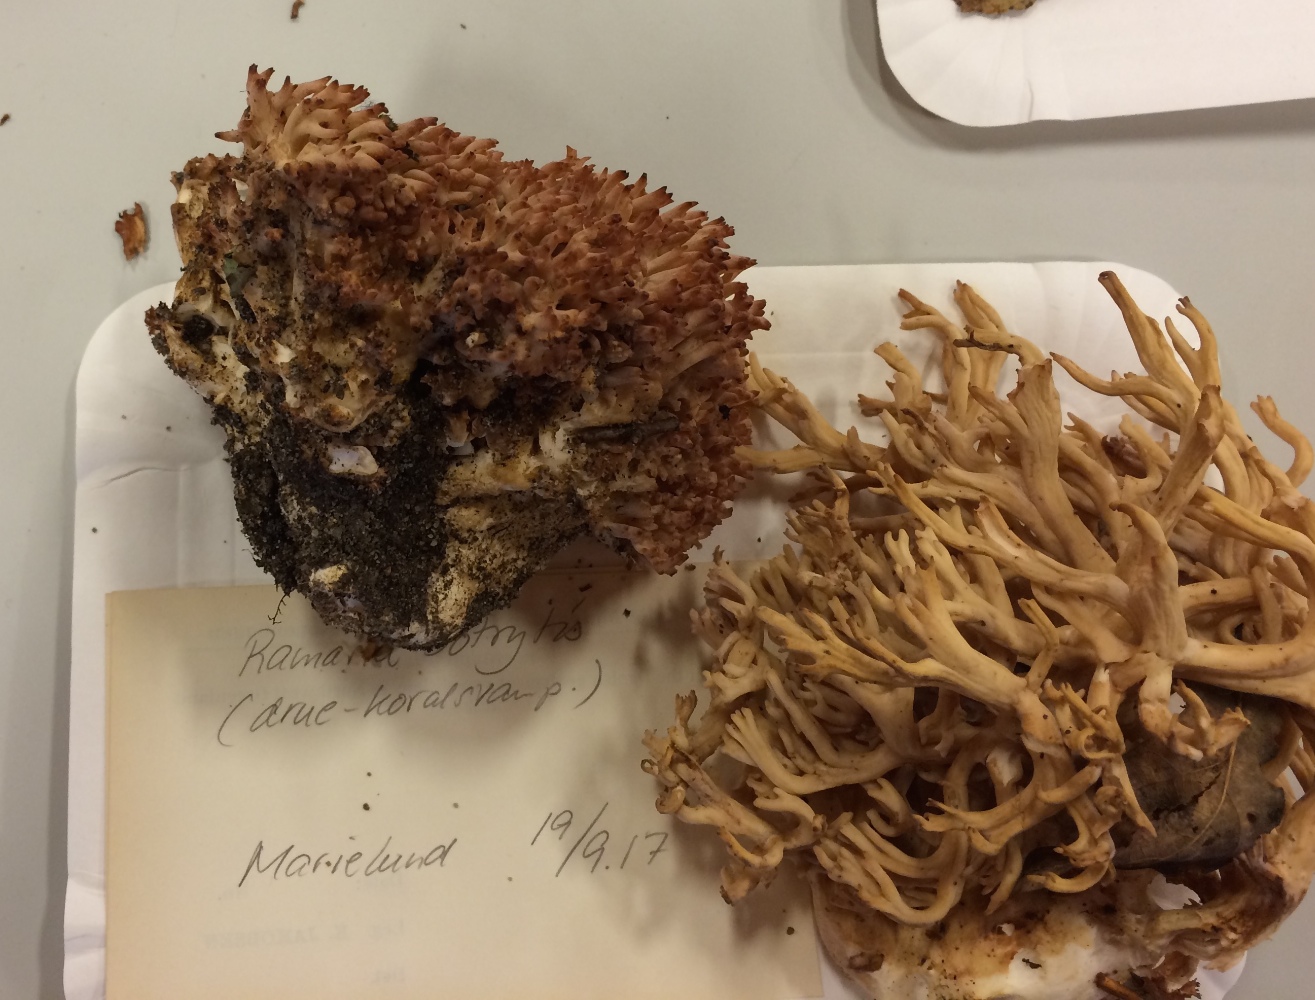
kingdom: Fungi
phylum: Basidiomycota
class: Agaricomycetes
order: Gomphales
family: Gomphaceae
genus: Ramaria
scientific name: Ramaria botrytis
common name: drue-koralsvamp
